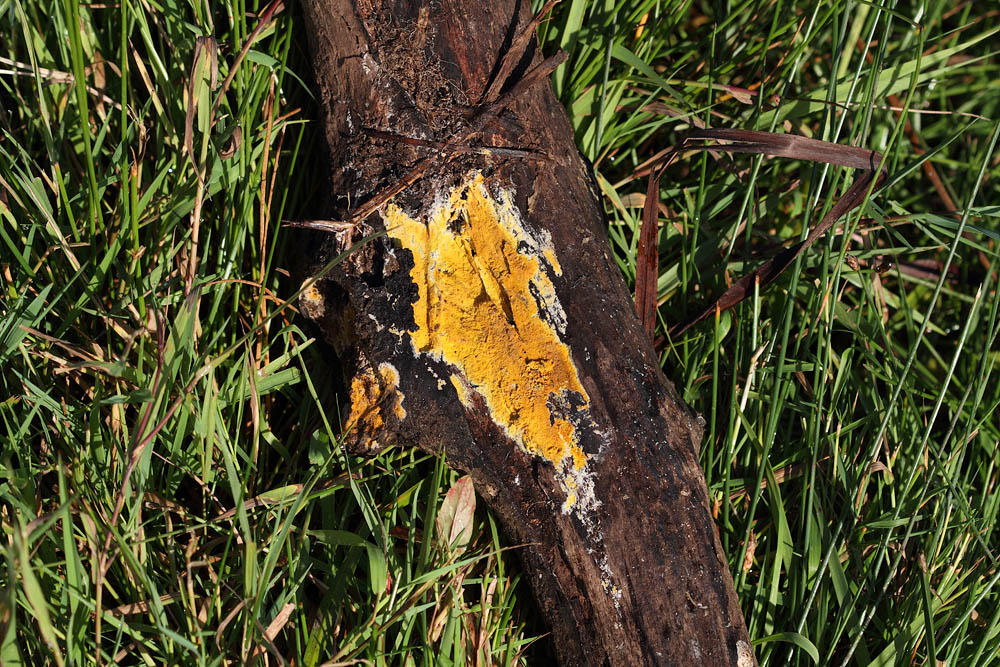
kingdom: Fungi
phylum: Basidiomycota
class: Agaricomycetes
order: Polyporales
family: Meruliaceae
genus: Phlebiodontia
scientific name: Phlebiodontia subochracea
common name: svovl-åresvamp
